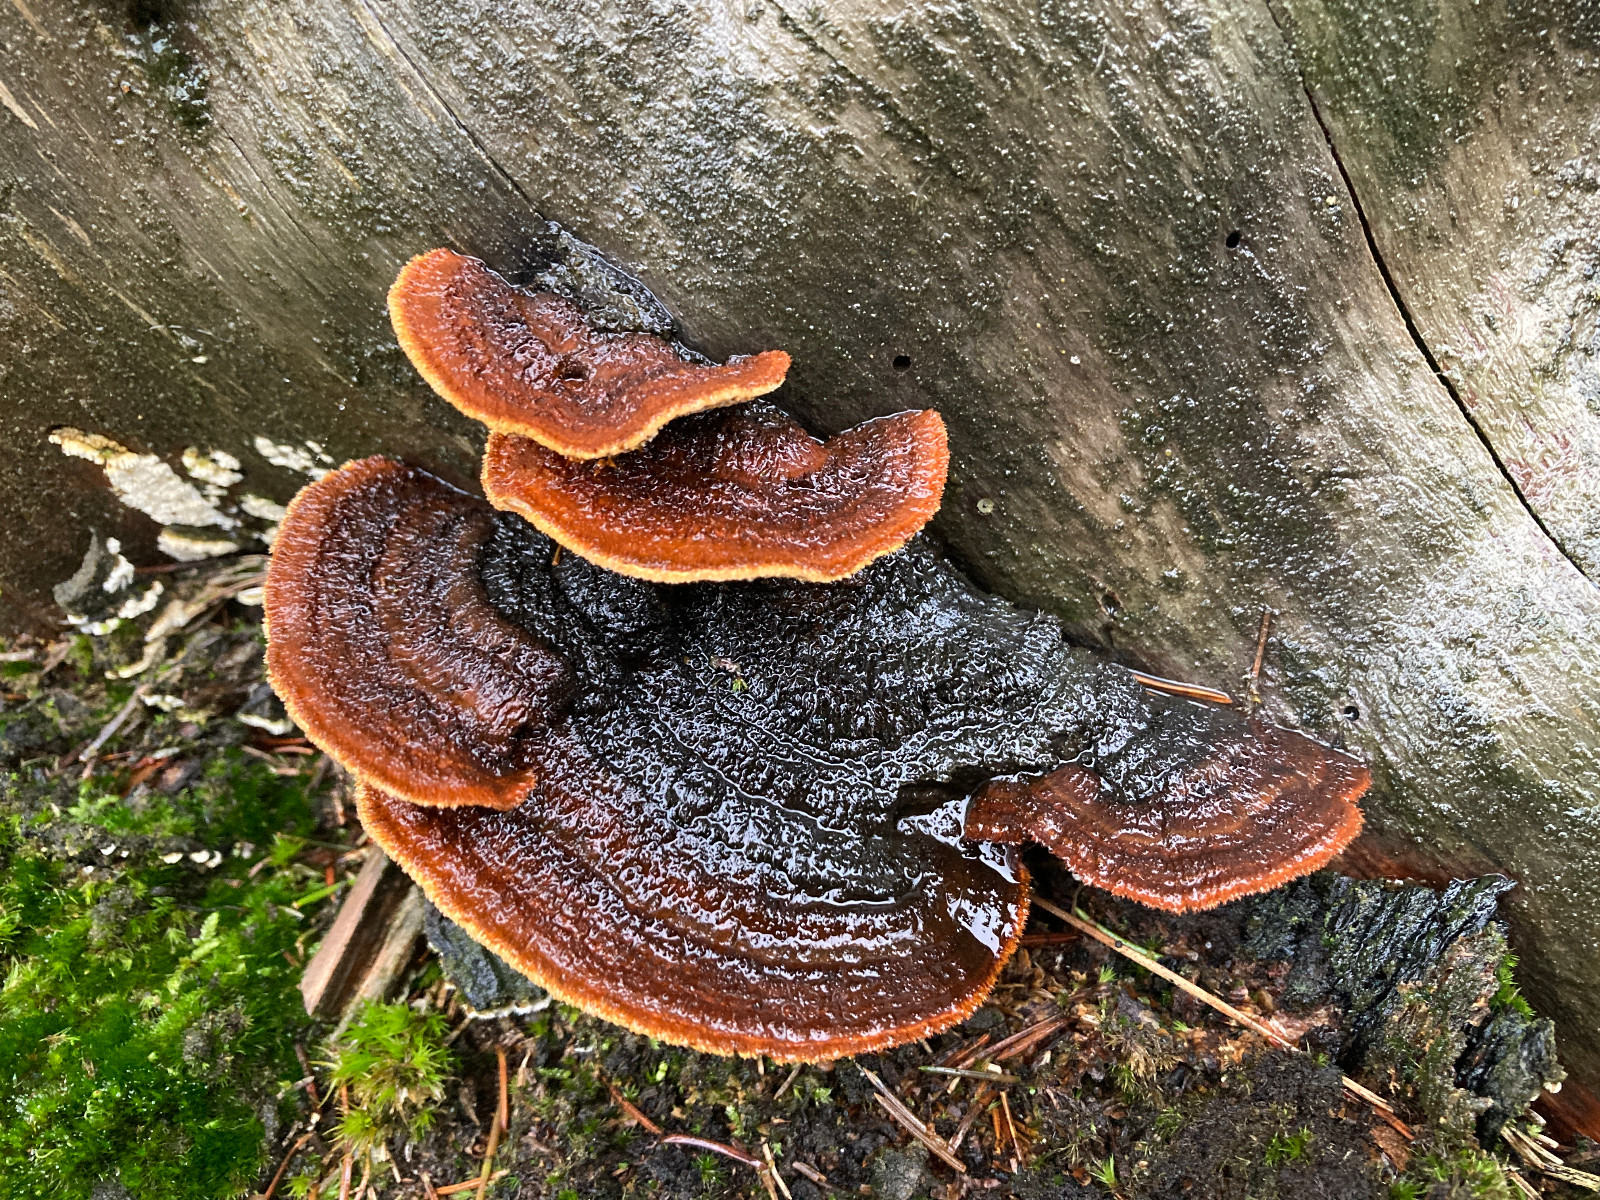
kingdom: Fungi
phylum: Basidiomycota
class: Agaricomycetes
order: Gloeophyllales
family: Gloeophyllaceae
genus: Gloeophyllum
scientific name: Gloeophyllum sepiarium
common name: fyrre-korkhat
